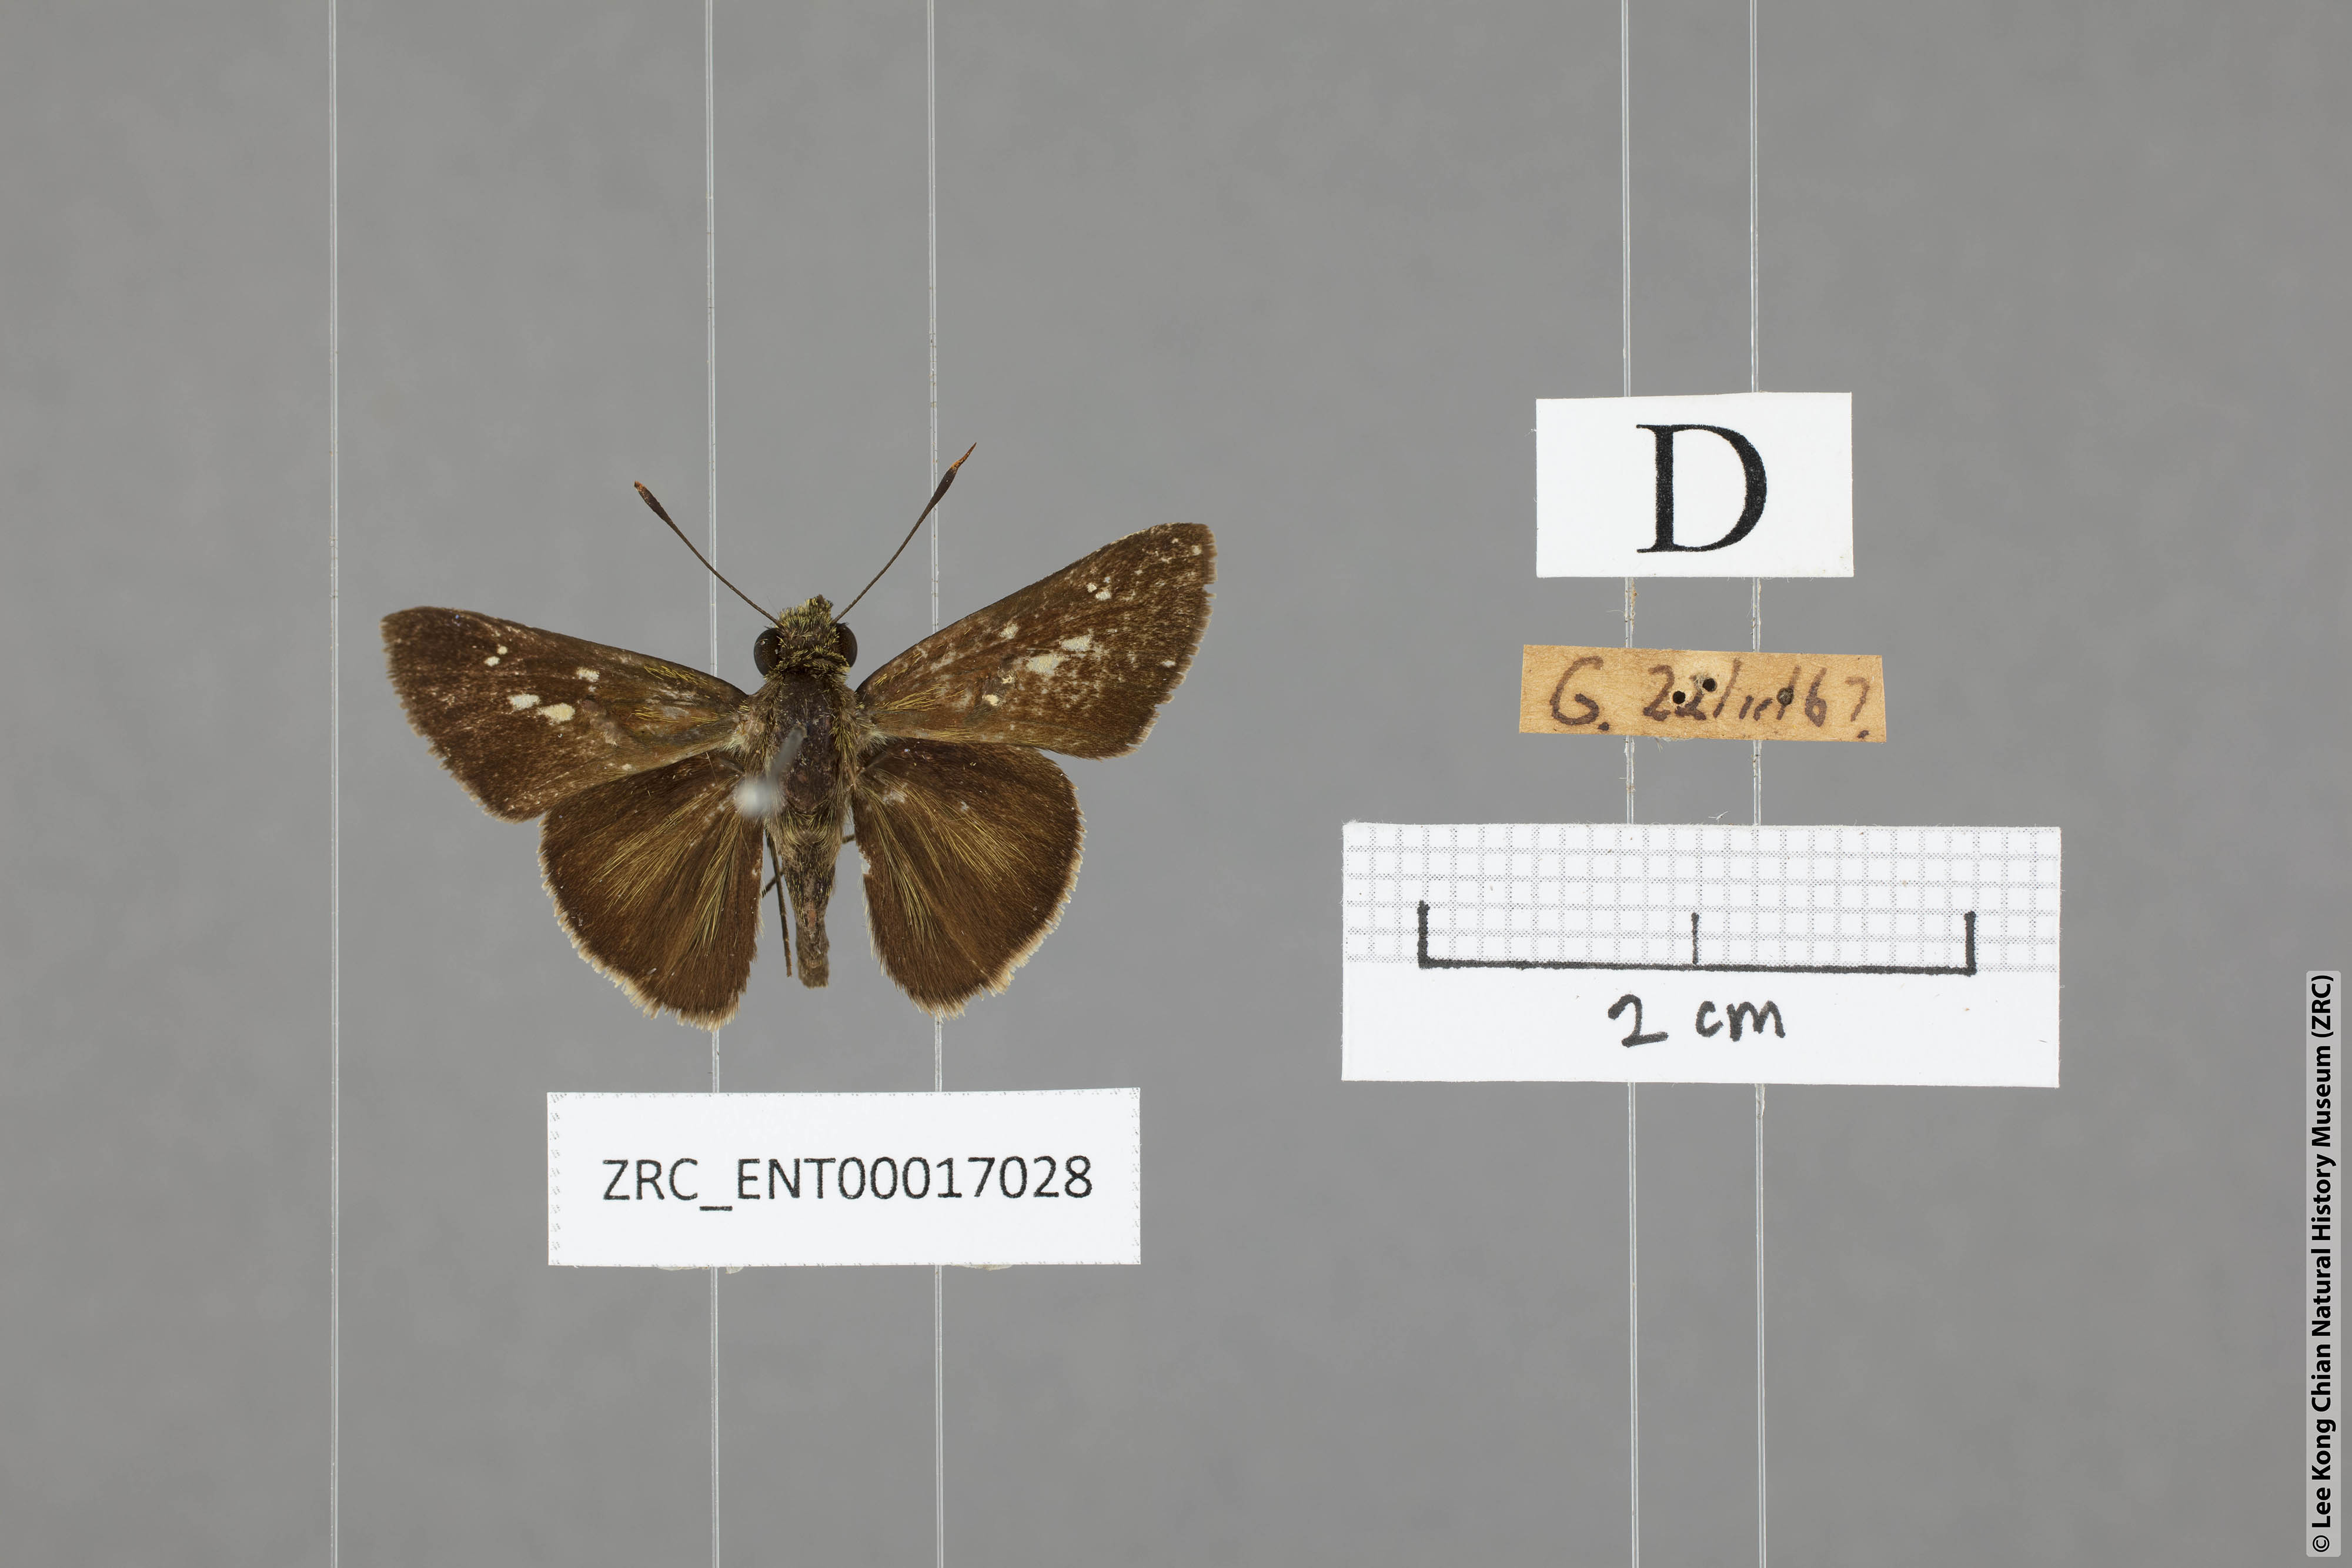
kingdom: Animalia
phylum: Arthropoda
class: Insecta
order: Lepidoptera
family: Hesperiidae
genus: Halpe
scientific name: Halpe pelethronix
